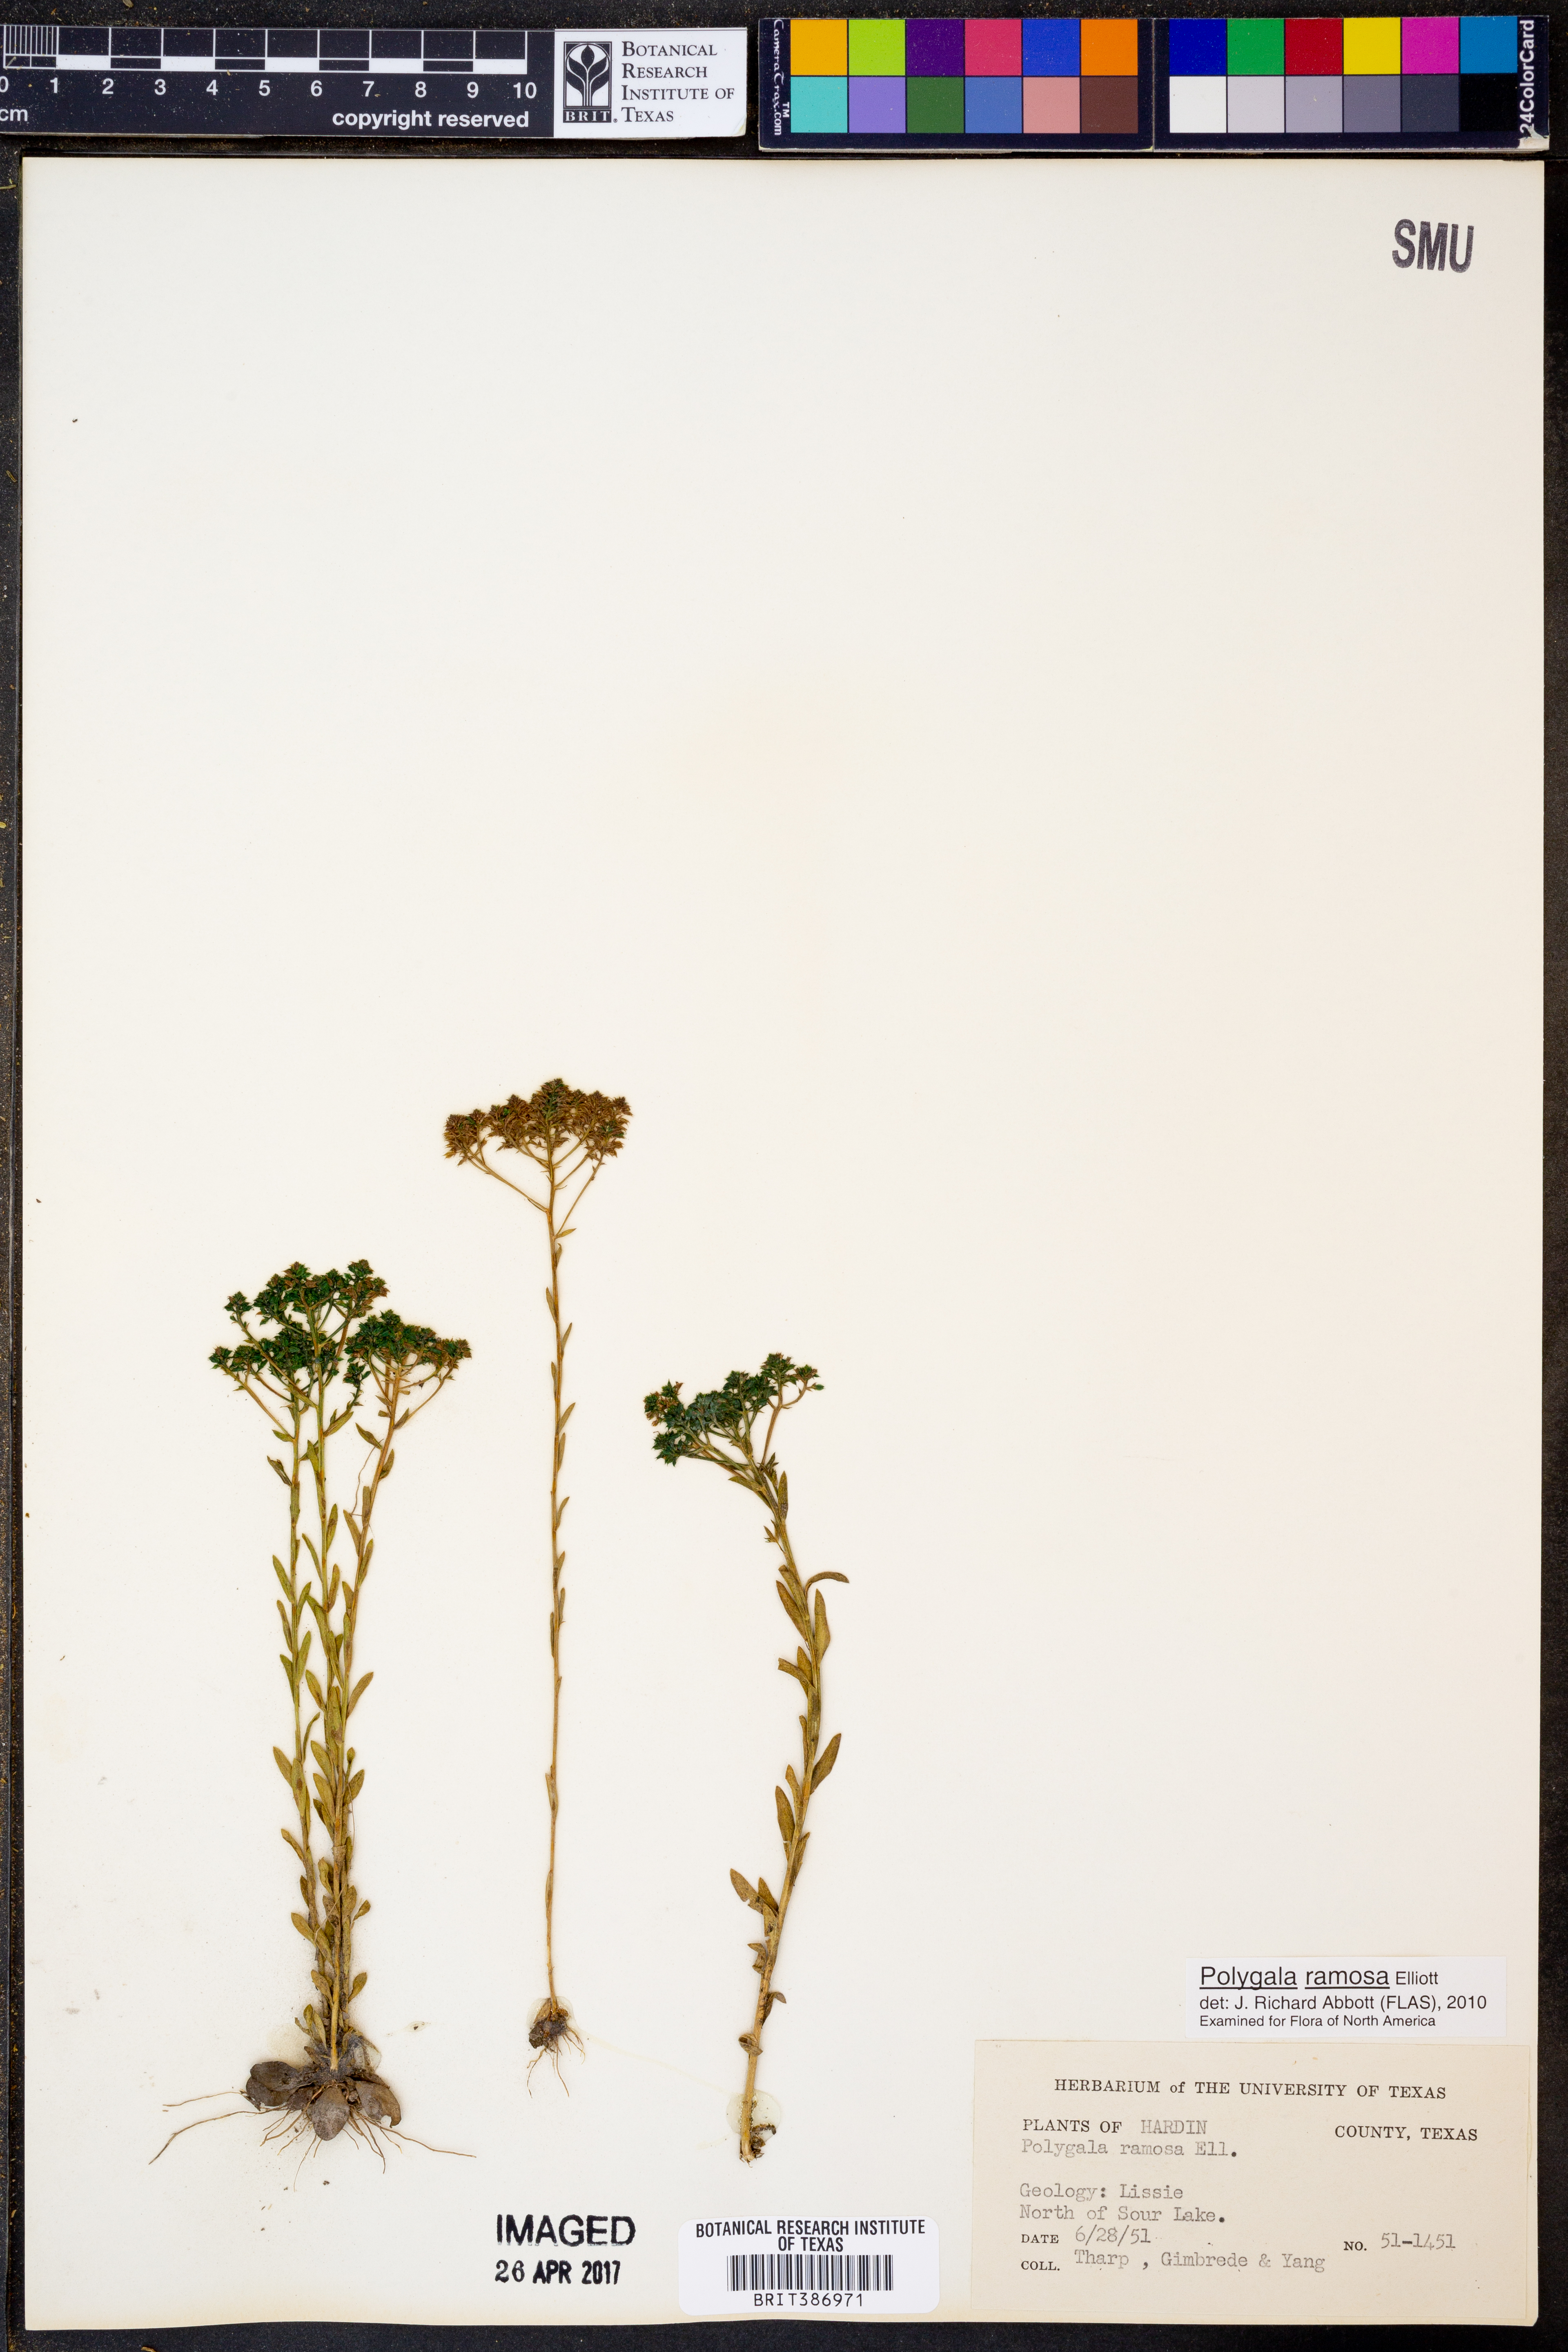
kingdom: Plantae
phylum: Tracheophyta
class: Magnoliopsida
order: Fabales
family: Polygalaceae
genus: Polygala
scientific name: Polygala ramosa
